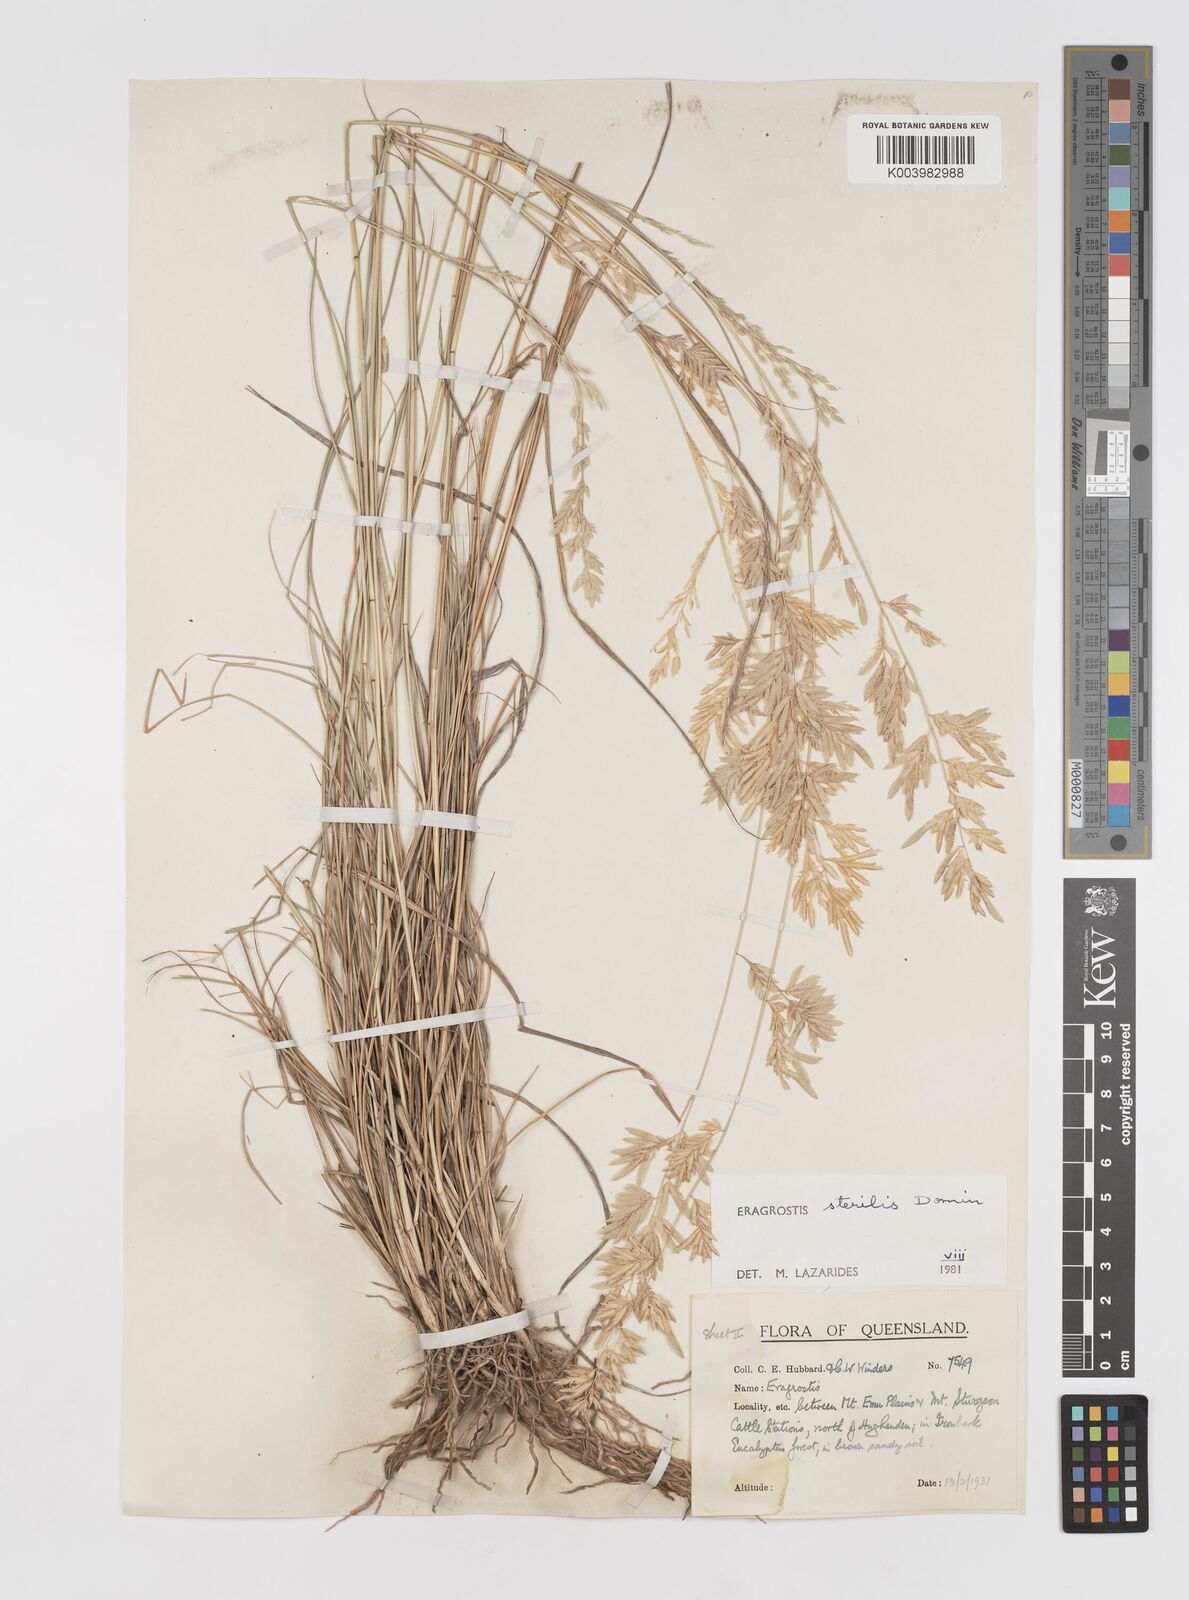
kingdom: Plantae
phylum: Tracheophyta
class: Liliopsida
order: Poales
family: Poaceae
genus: Eragrostis
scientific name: Eragrostis sterilis
